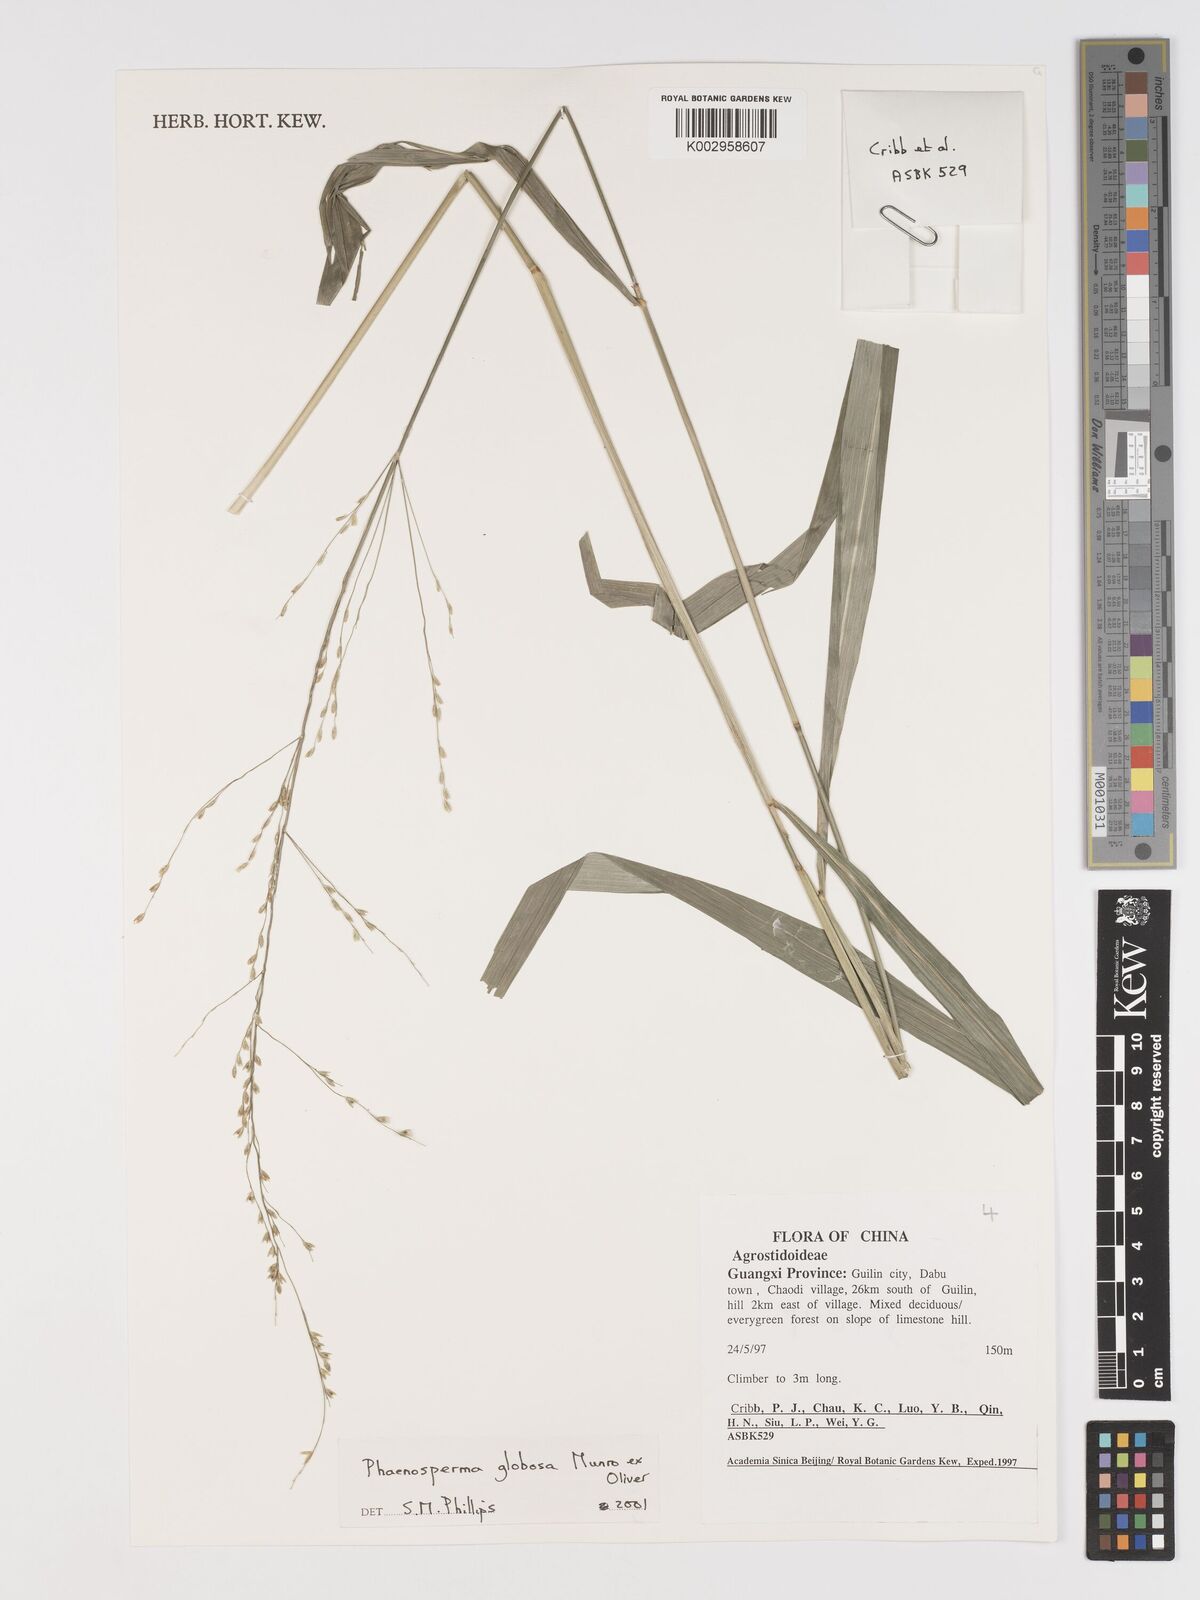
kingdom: Plantae
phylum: Tracheophyta
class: Liliopsida
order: Poales
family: Poaceae
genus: Phaenosperma
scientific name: Phaenosperma globosum
